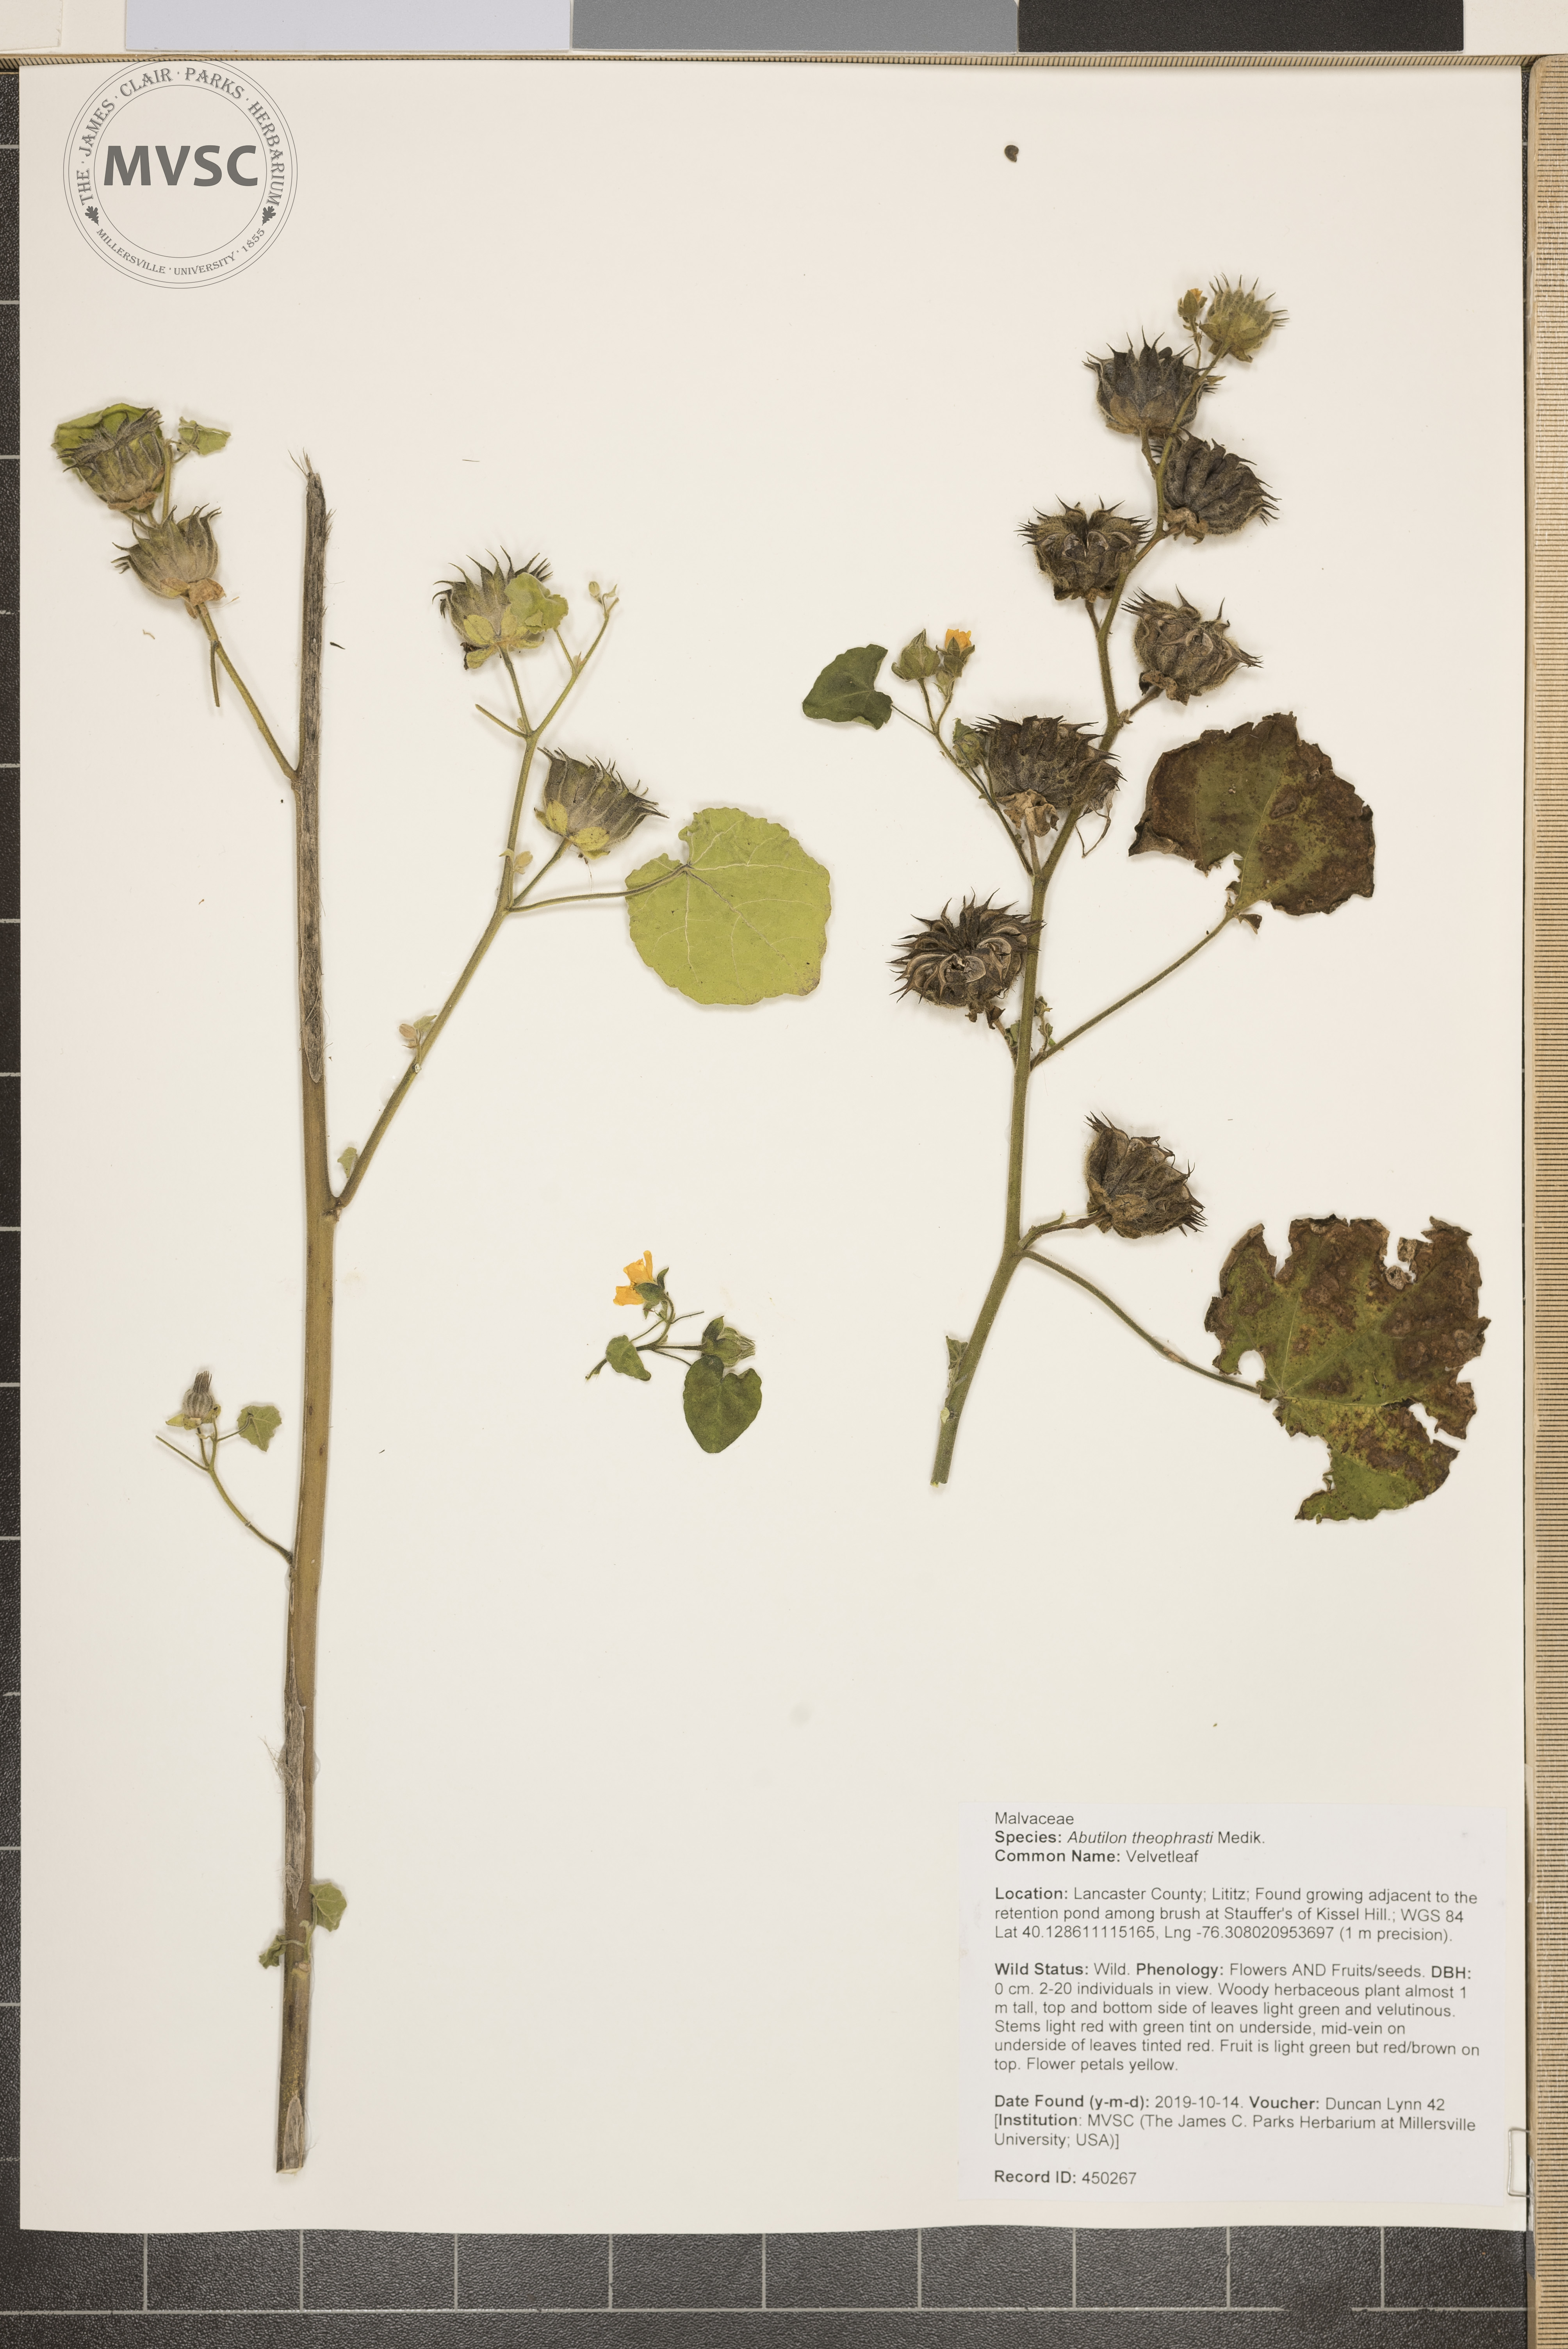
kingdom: Plantae
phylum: Tracheophyta
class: Magnoliopsida
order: Malvales
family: Malvaceae
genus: Abutilon
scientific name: Abutilon theophrasti
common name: Velvetleaf
